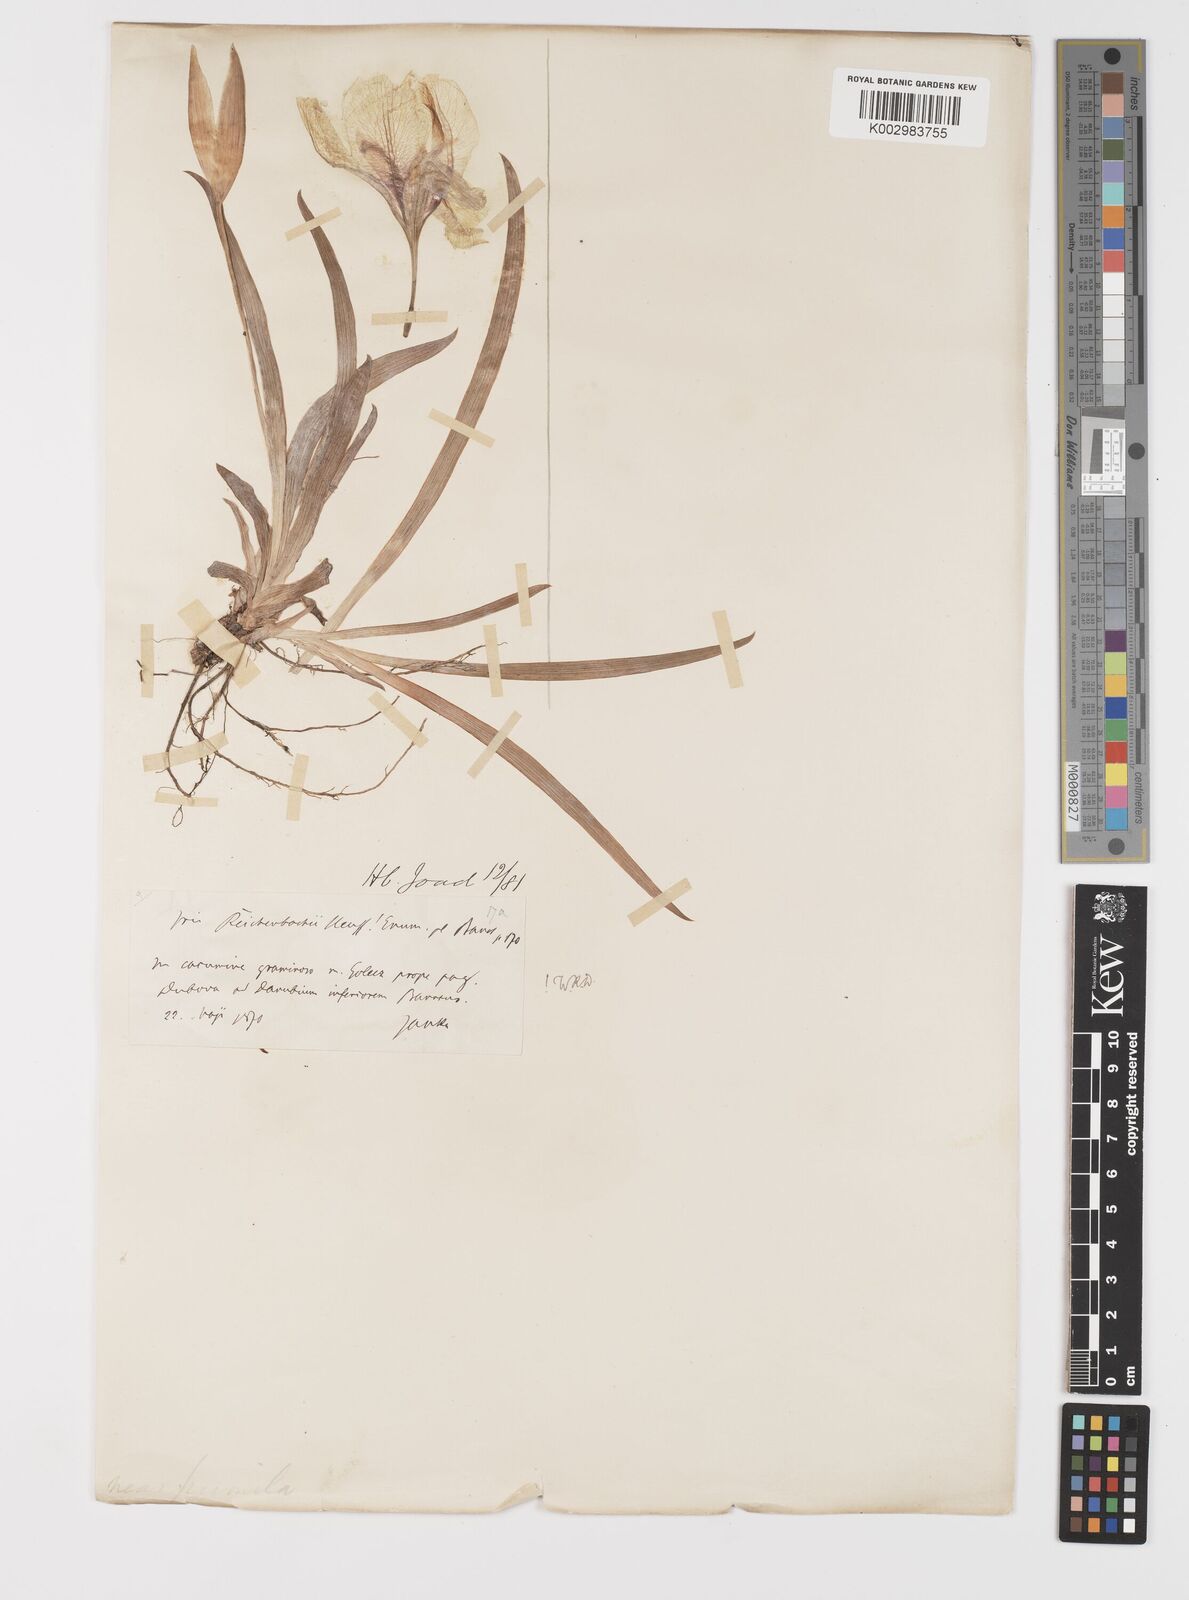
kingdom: Plantae
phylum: Tracheophyta
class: Liliopsida
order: Asparagales
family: Iridaceae
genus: Iris
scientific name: Iris reichenbachii
